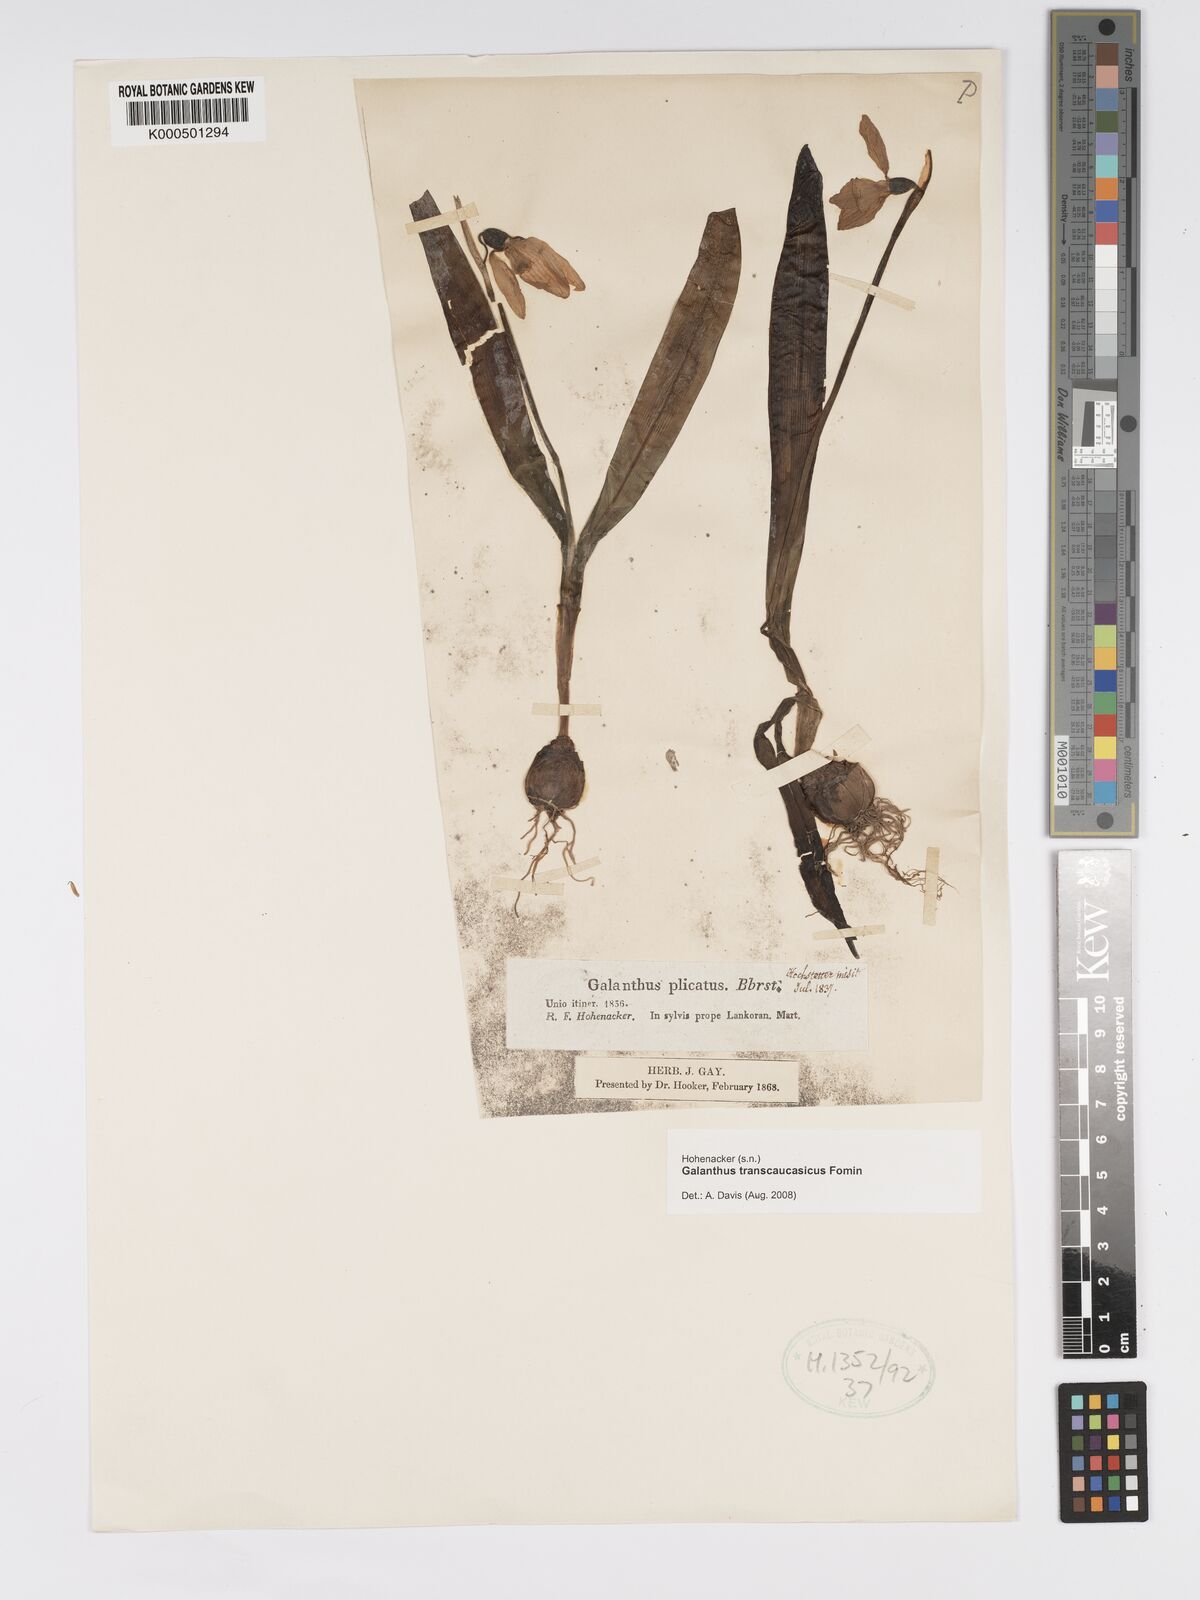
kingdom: Plantae
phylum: Tracheophyta
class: Liliopsida
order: Asparagales
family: Amaryllidaceae
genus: Galanthus
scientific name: Galanthus transcaucasicus
